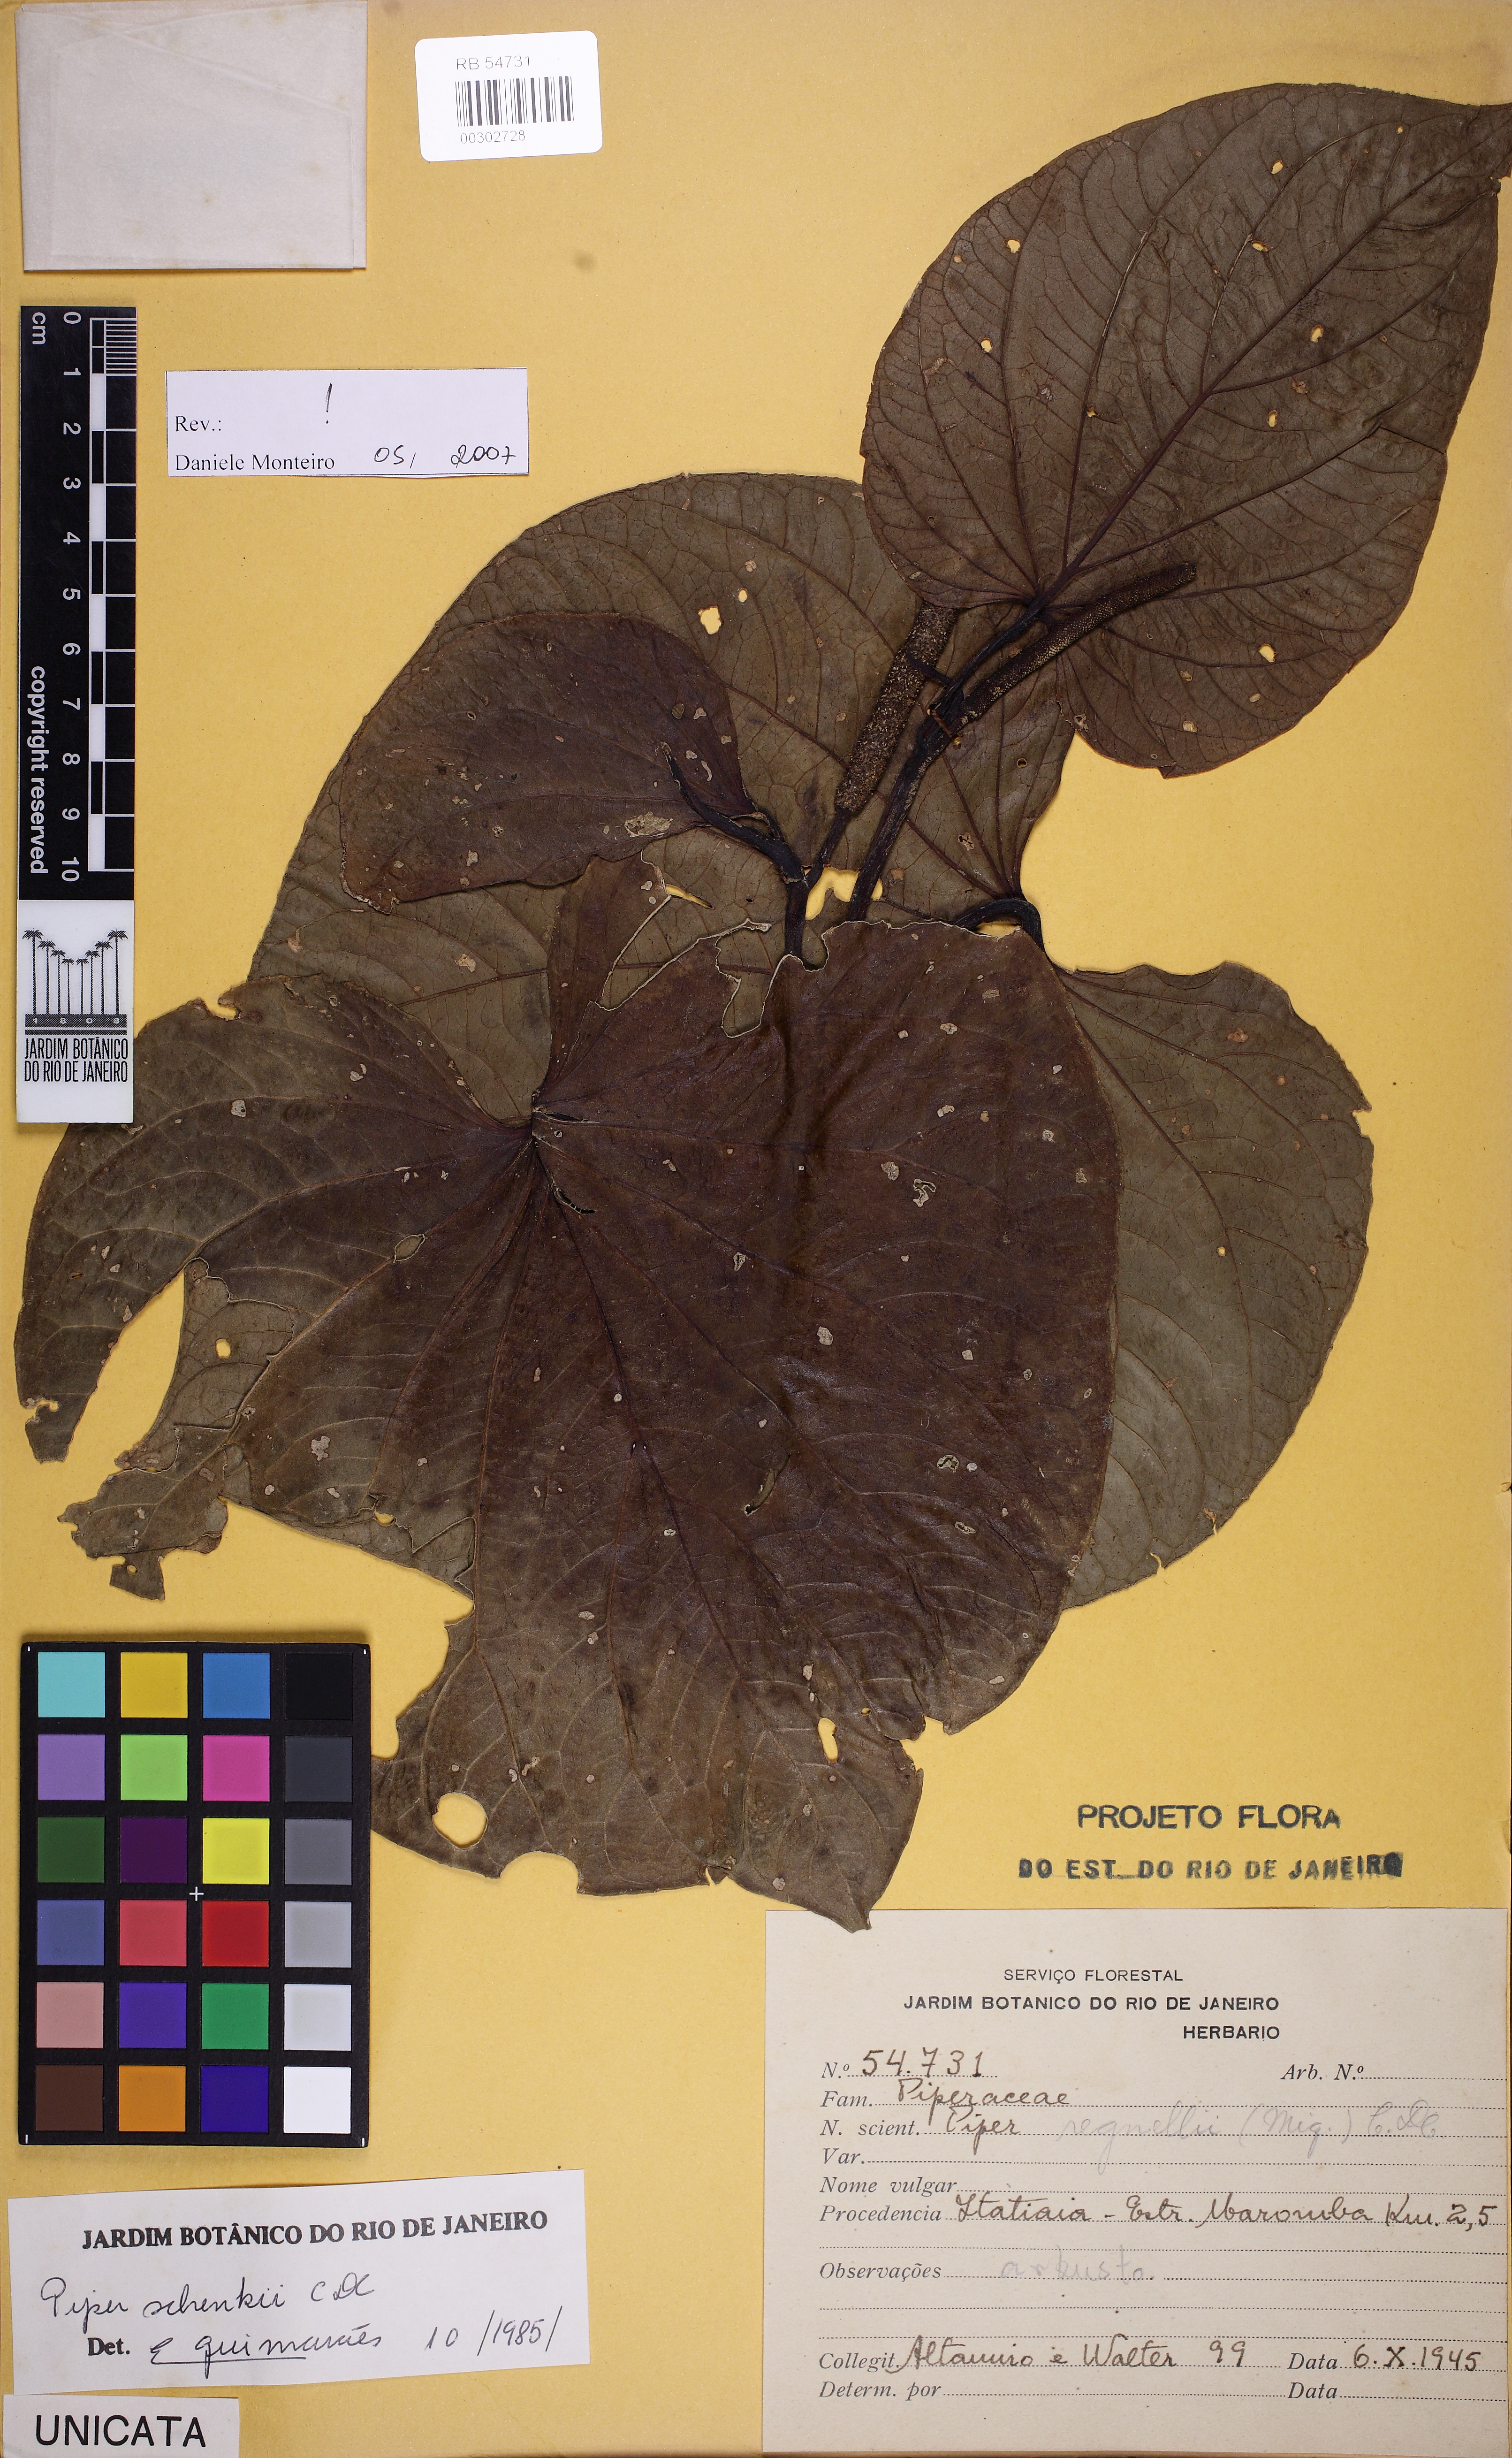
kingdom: Plantae
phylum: Tracheophyta
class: Magnoliopsida
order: Piperales
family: Piperaceae
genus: Piper
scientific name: Piper schenckii
